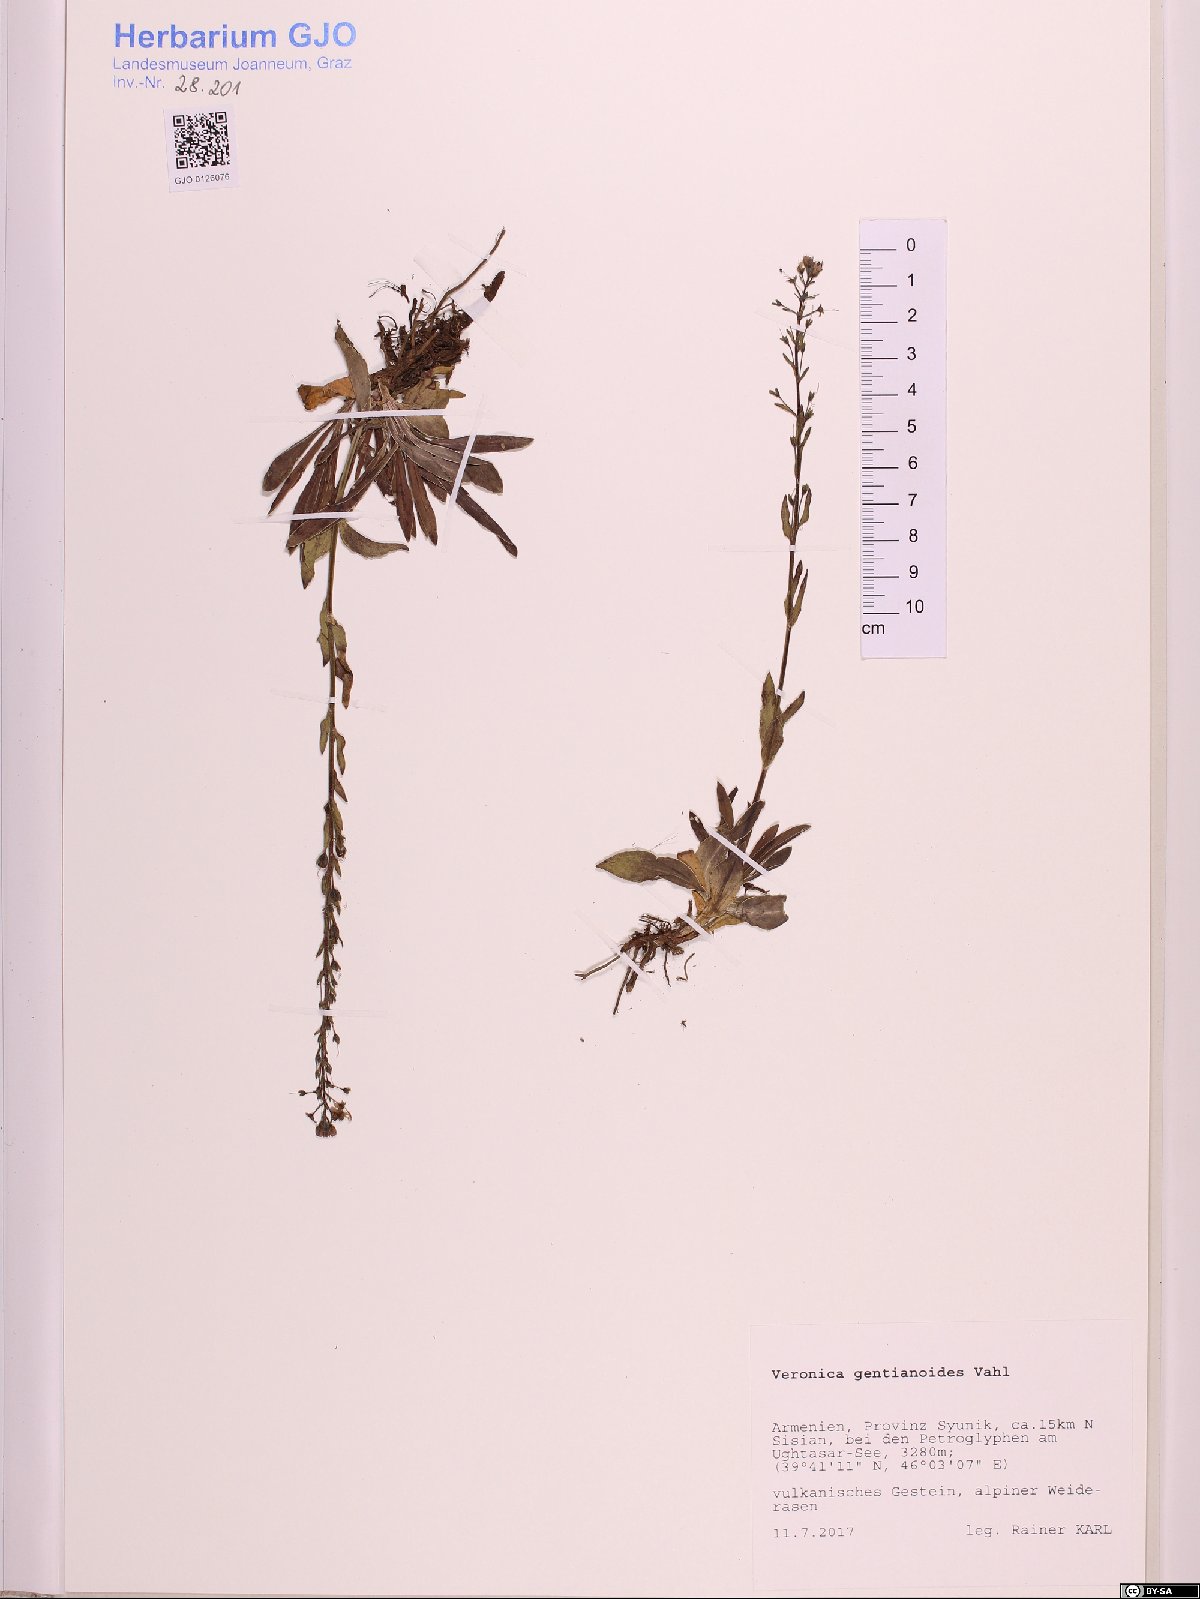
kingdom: Plantae
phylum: Tracheophyta
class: Magnoliopsida
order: Lamiales
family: Plantaginaceae
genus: Veronica
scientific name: Veronica gentianoides
